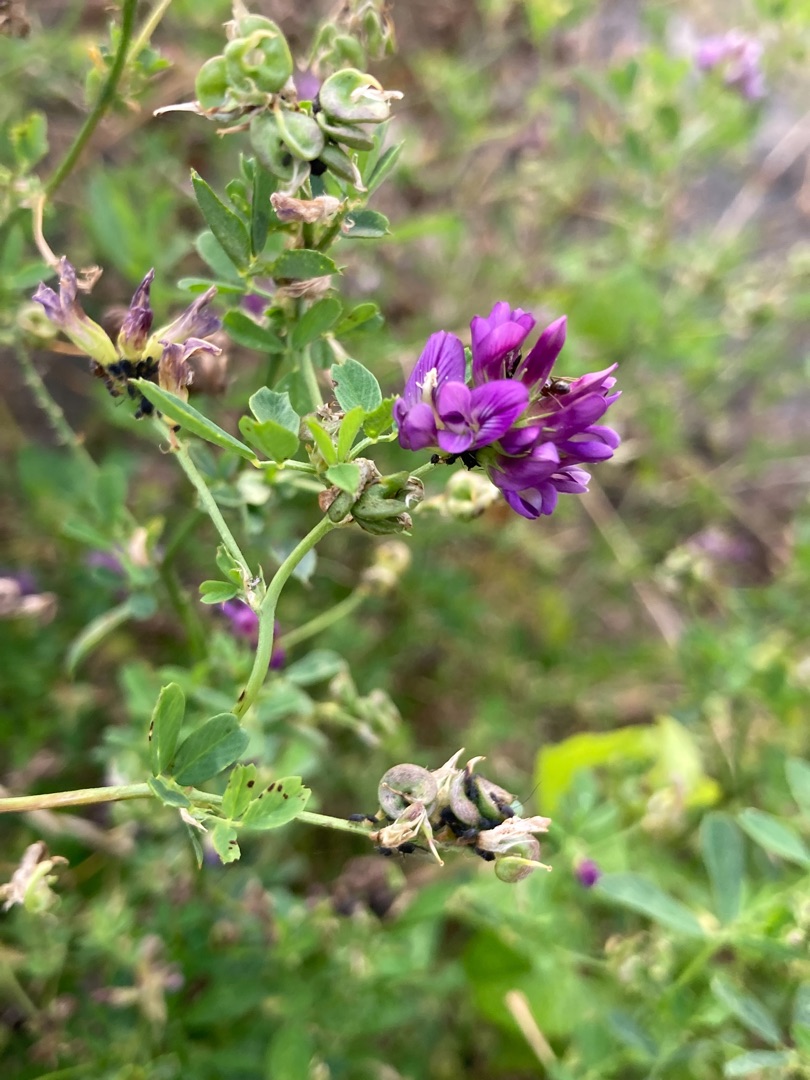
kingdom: Plantae
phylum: Tracheophyta
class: Magnoliopsida
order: Fabales
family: Fabaceae
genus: Medicago
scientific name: Medicago sativa
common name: Lucerne
